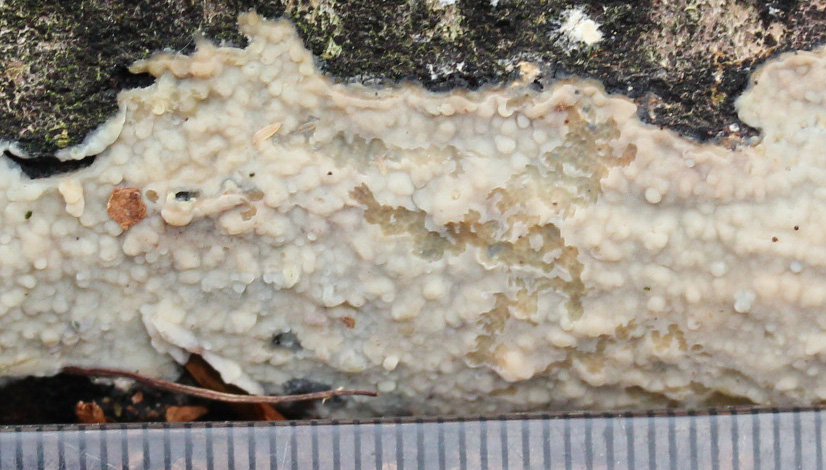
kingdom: Fungi
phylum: Basidiomycota
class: Agaricomycetes
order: Agaricales
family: Radulomycetaceae
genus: Radulomyces
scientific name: Radulomyces confluens
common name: glat naftalinskind
